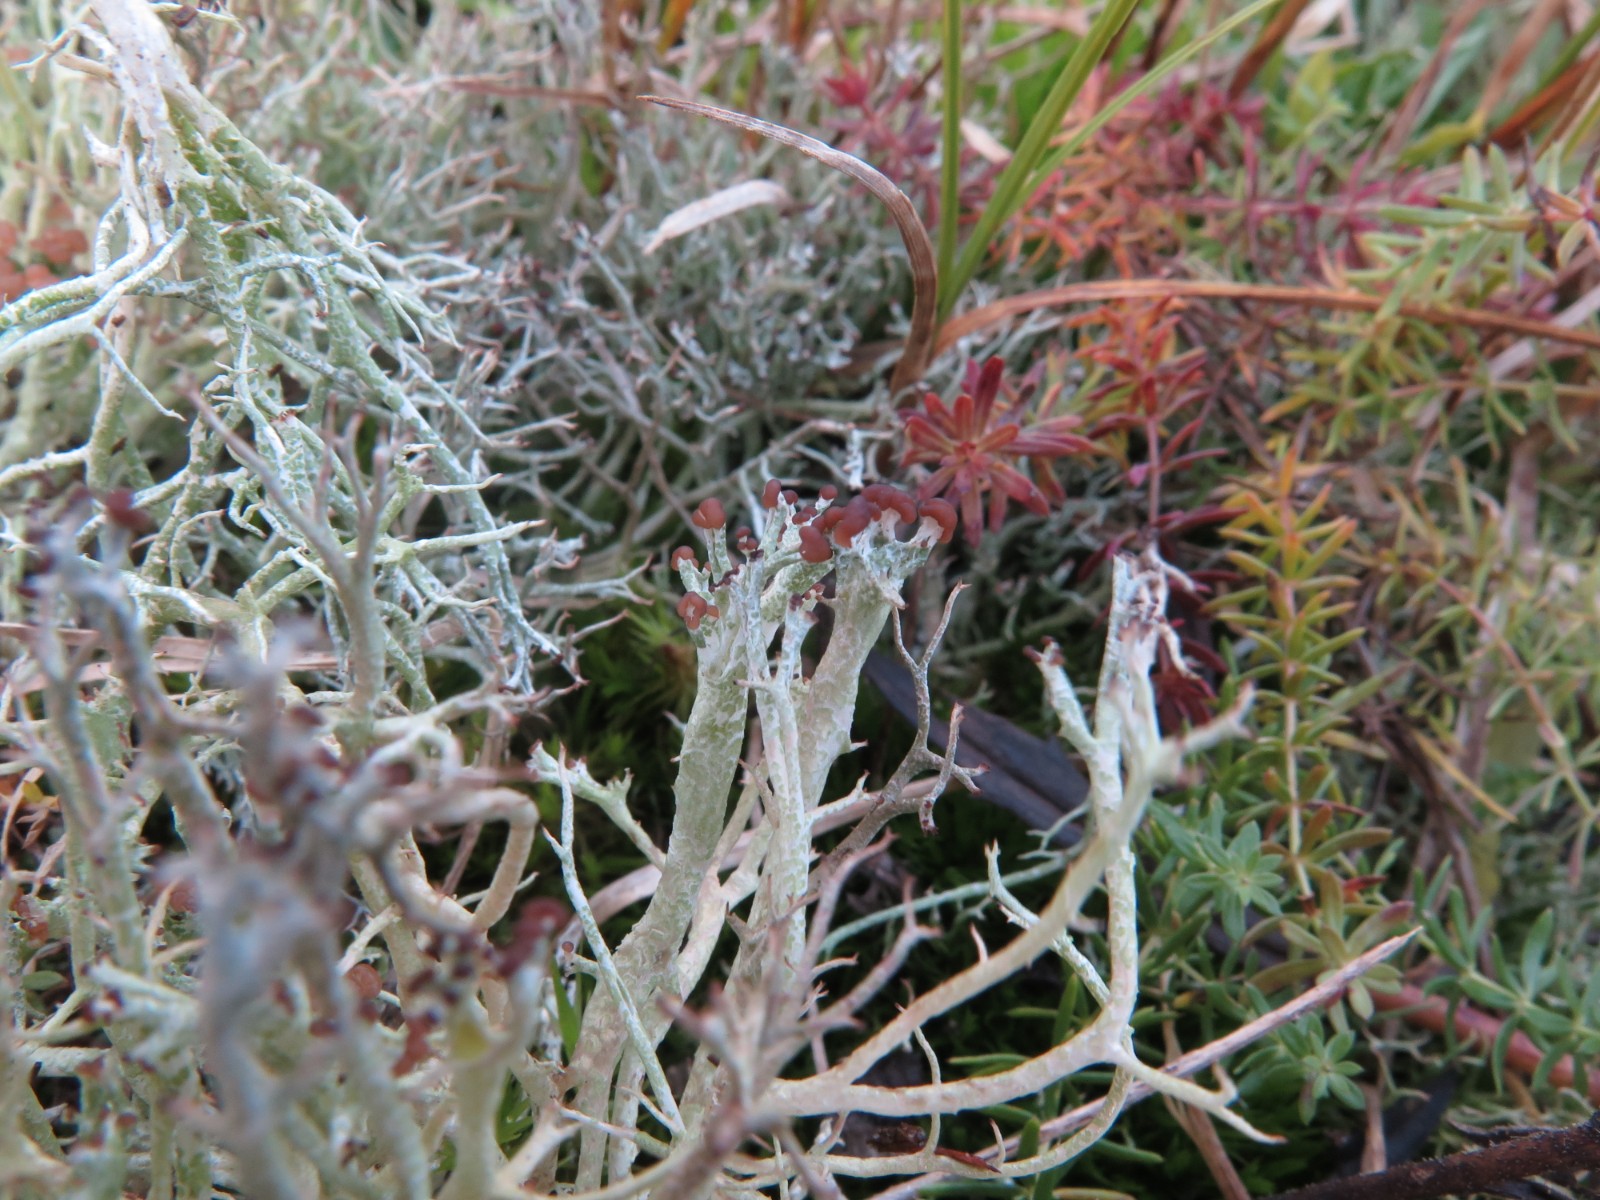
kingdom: Fungi
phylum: Ascomycota
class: Lecanoromycetes
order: Lecanorales
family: Cladoniaceae
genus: Cladonia
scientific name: Cladonia rangiformis
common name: spættet bægerlav
